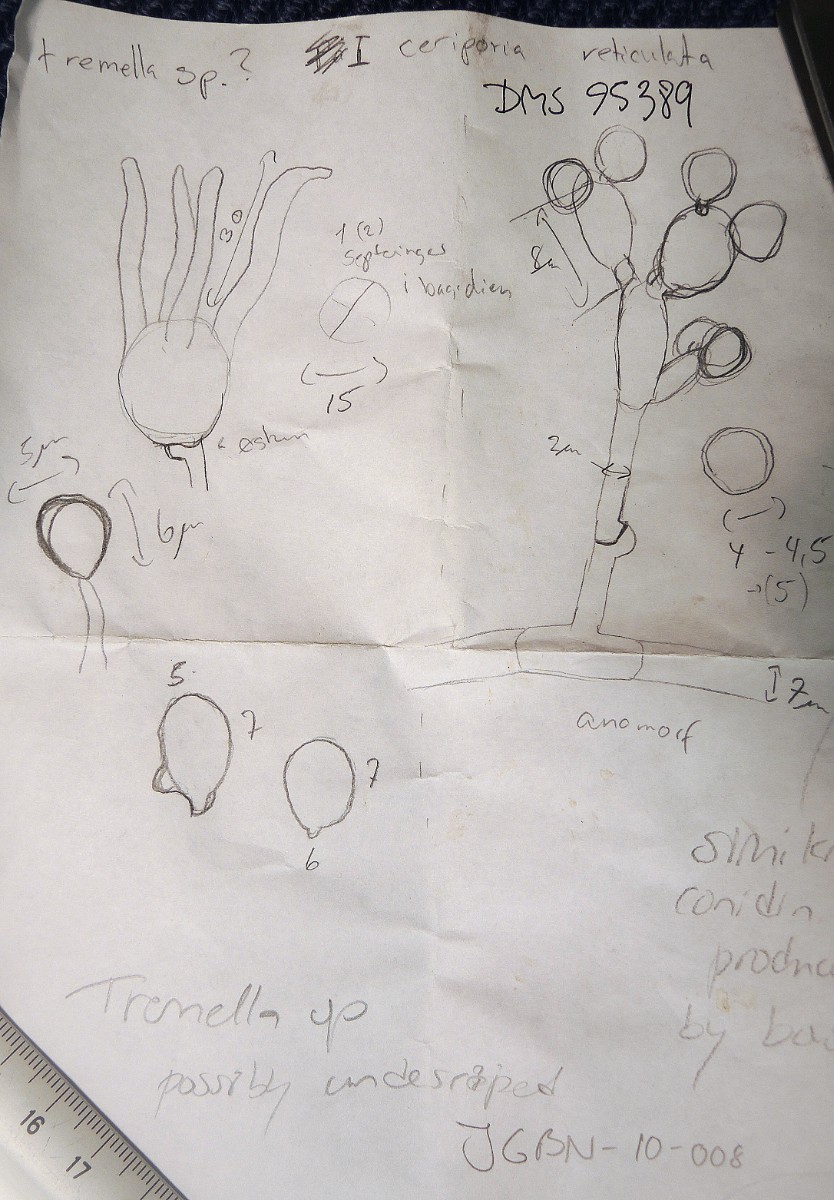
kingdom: Fungi
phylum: Basidiomycota
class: Tremellomycetes
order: Tremellales
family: Tremellaceae
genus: Tremella
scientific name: Tremella
